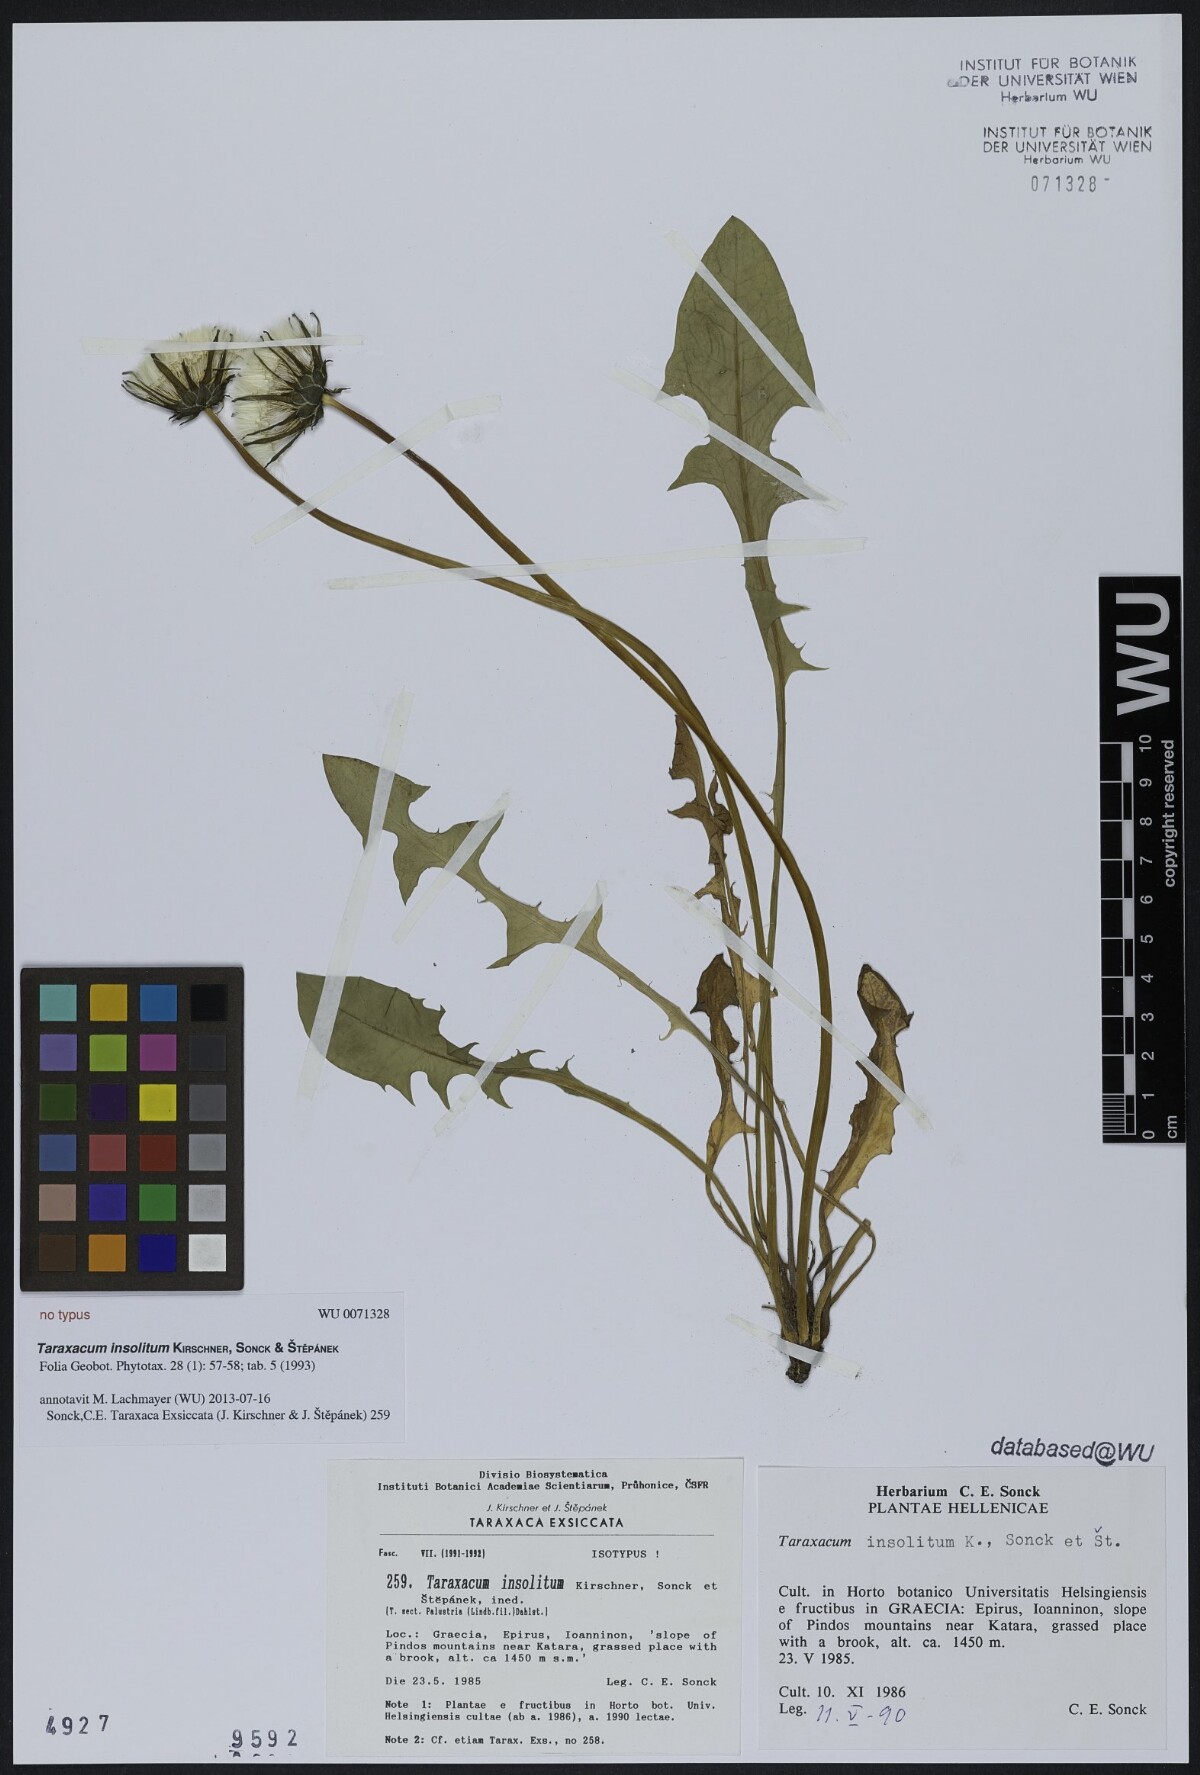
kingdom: Plantae
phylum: Tracheophyta
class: Magnoliopsida
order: Asterales
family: Asteraceae
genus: Taraxacum
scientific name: Taraxacum insolitum
